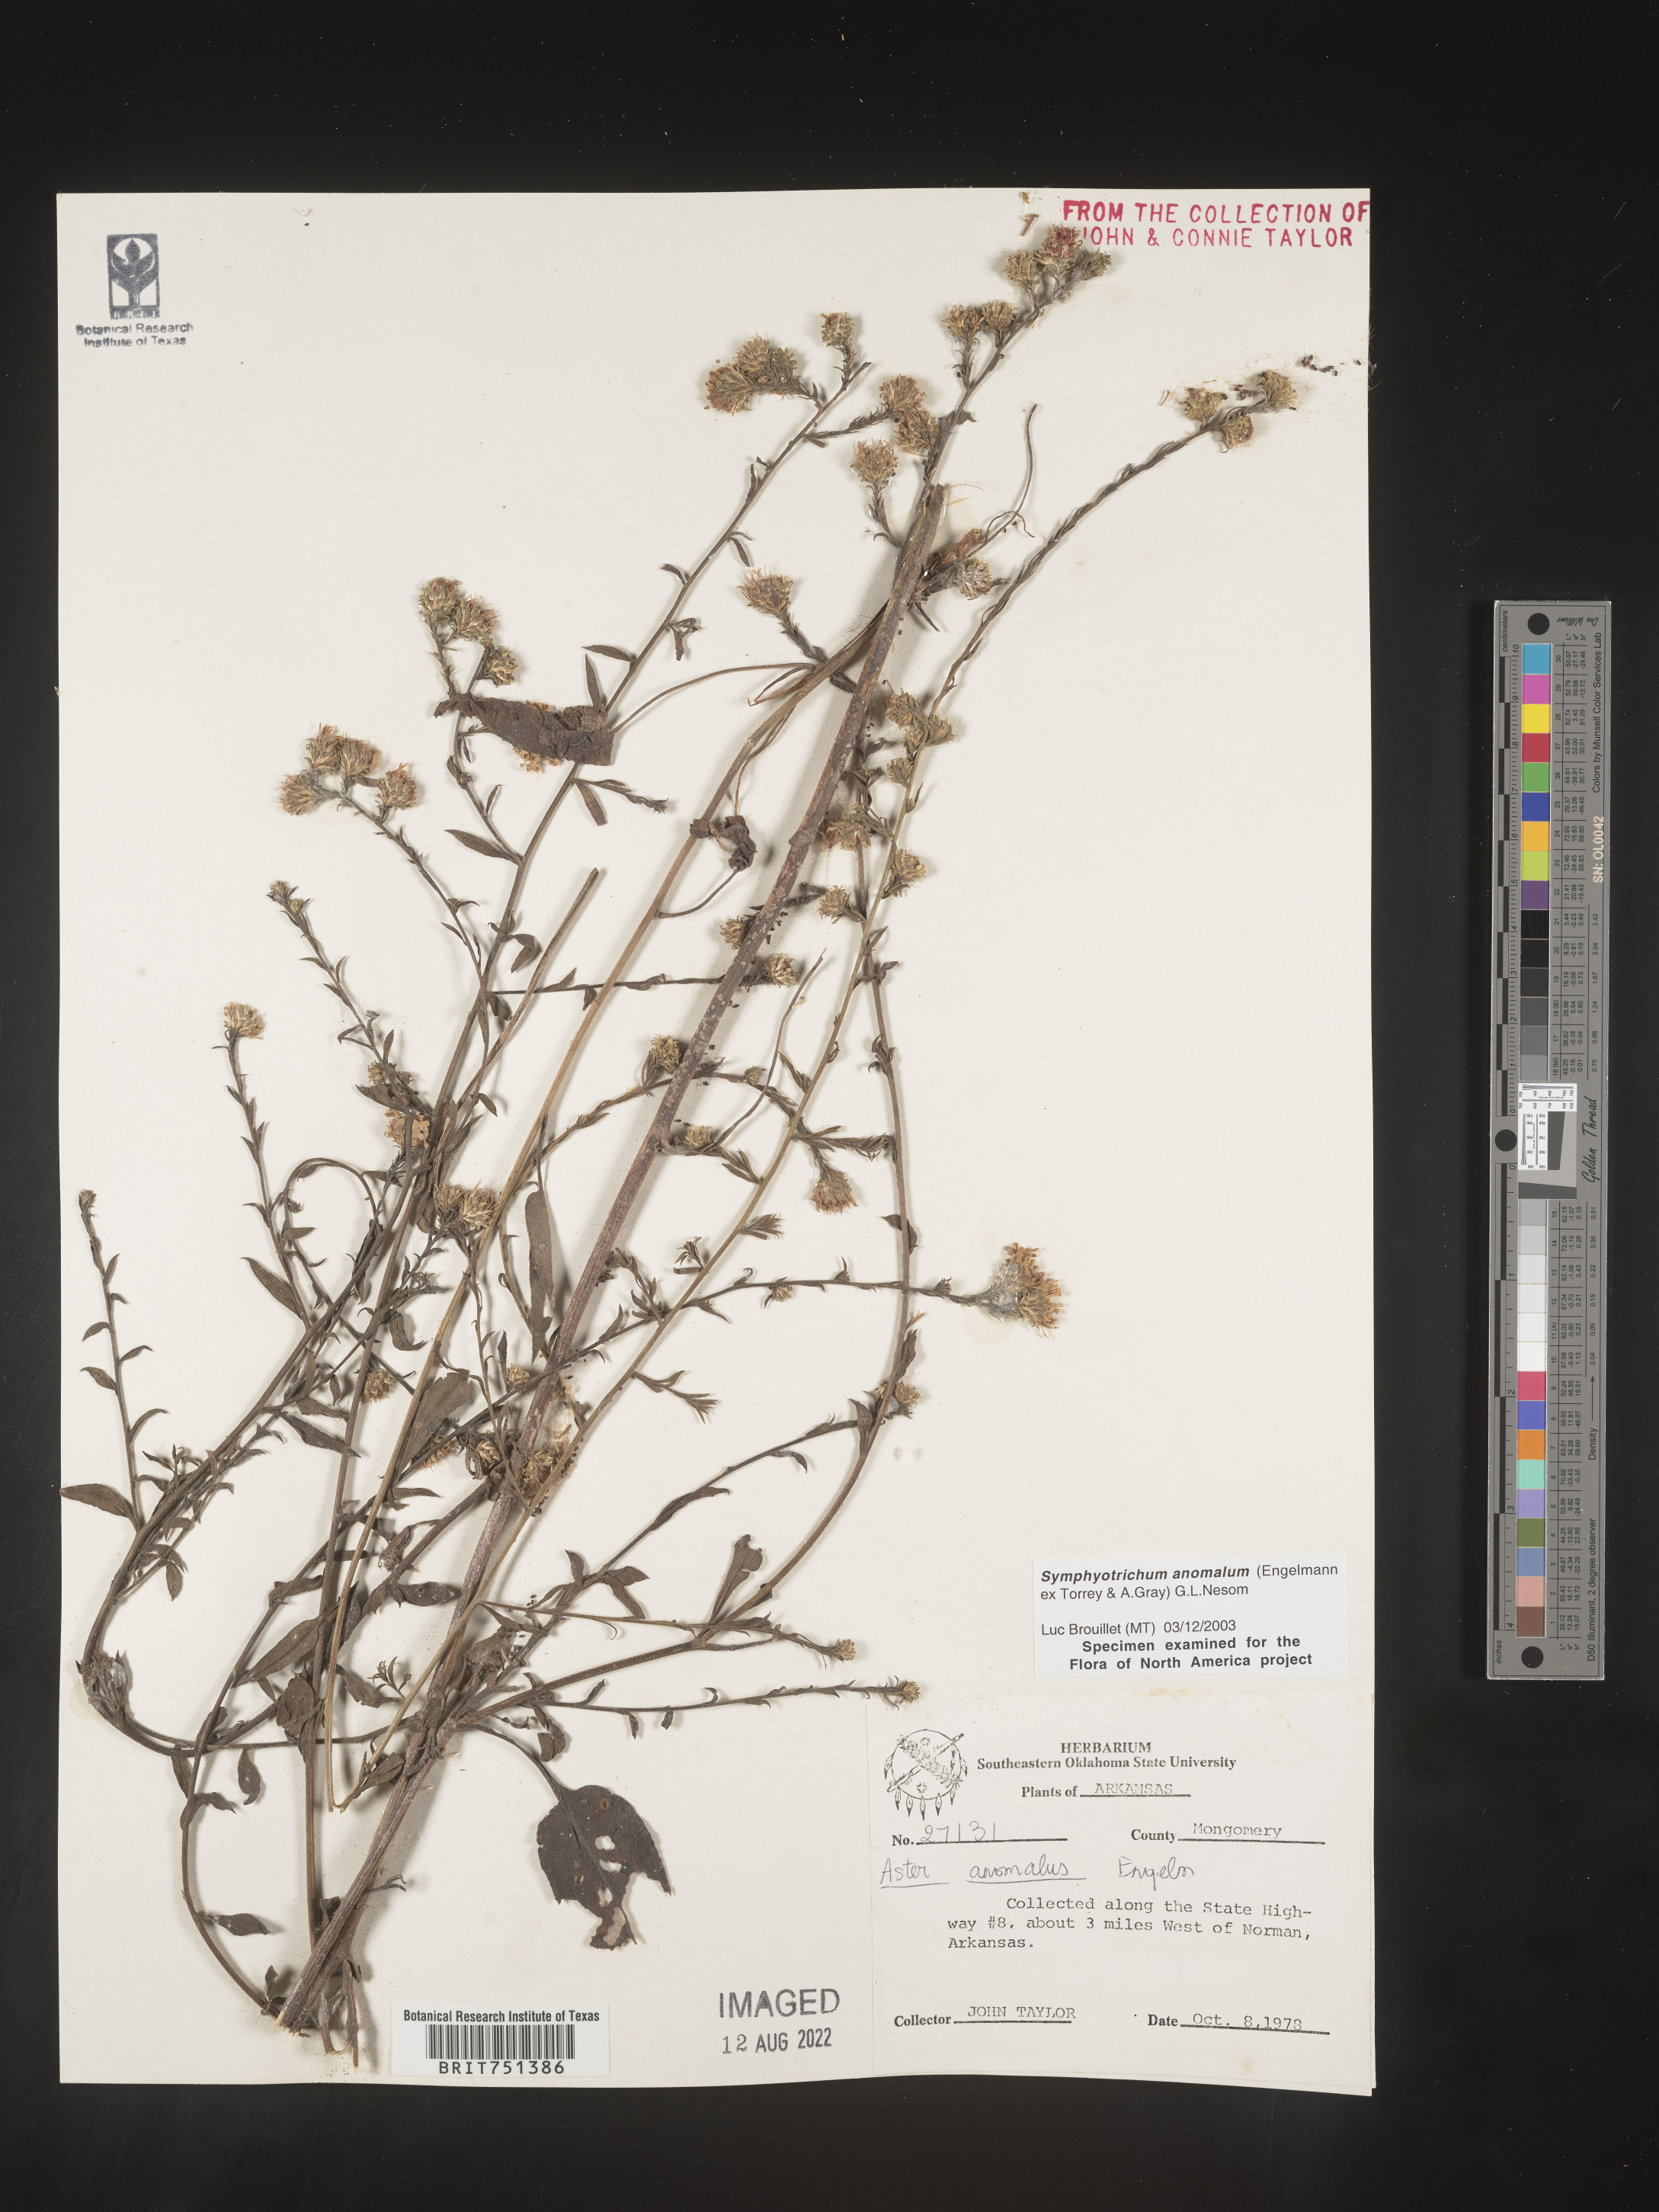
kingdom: Plantae
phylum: Tracheophyta
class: Magnoliopsida
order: Asterales
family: Asteraceae
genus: Symphyotrichum
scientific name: Symphyotrichum anomalum
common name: Many-ray aster
